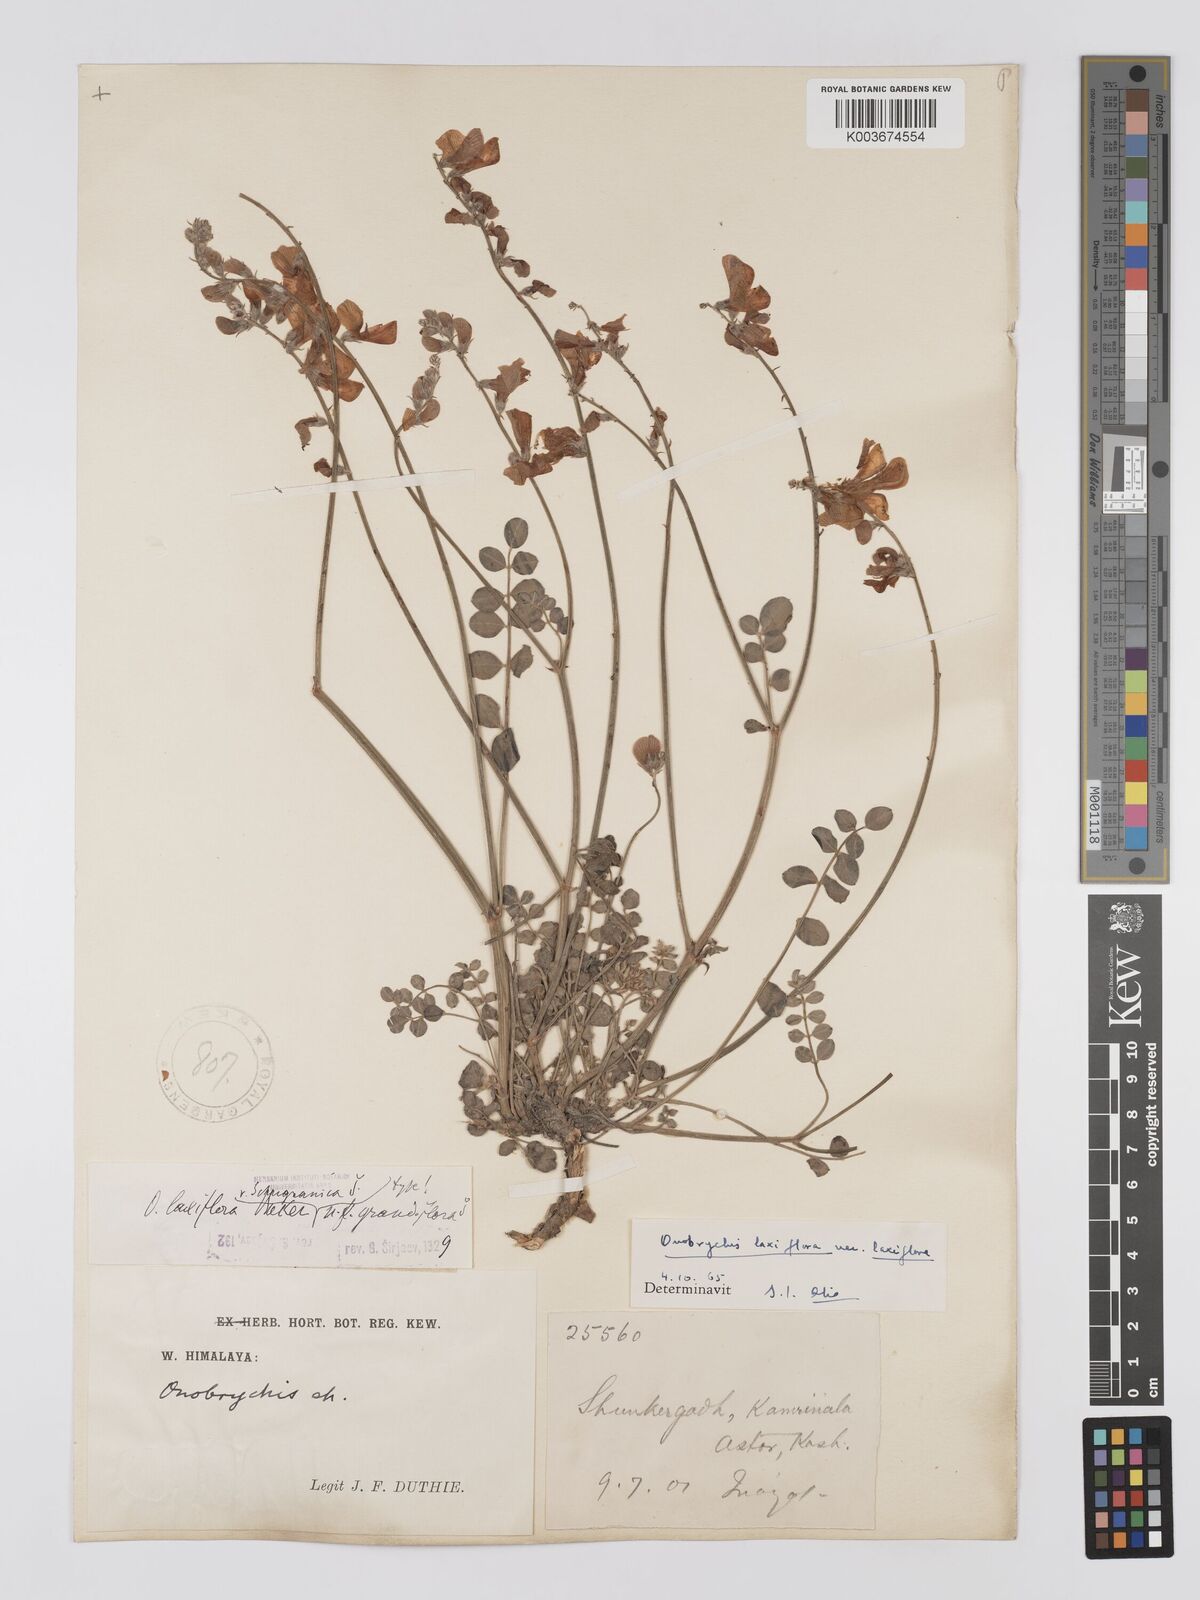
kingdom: Plantae
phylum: Tracheophyta
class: Magnoliopsida
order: Fabales
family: Fabaceae
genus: Onobrychis
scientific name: Onobrychis laxiflora
